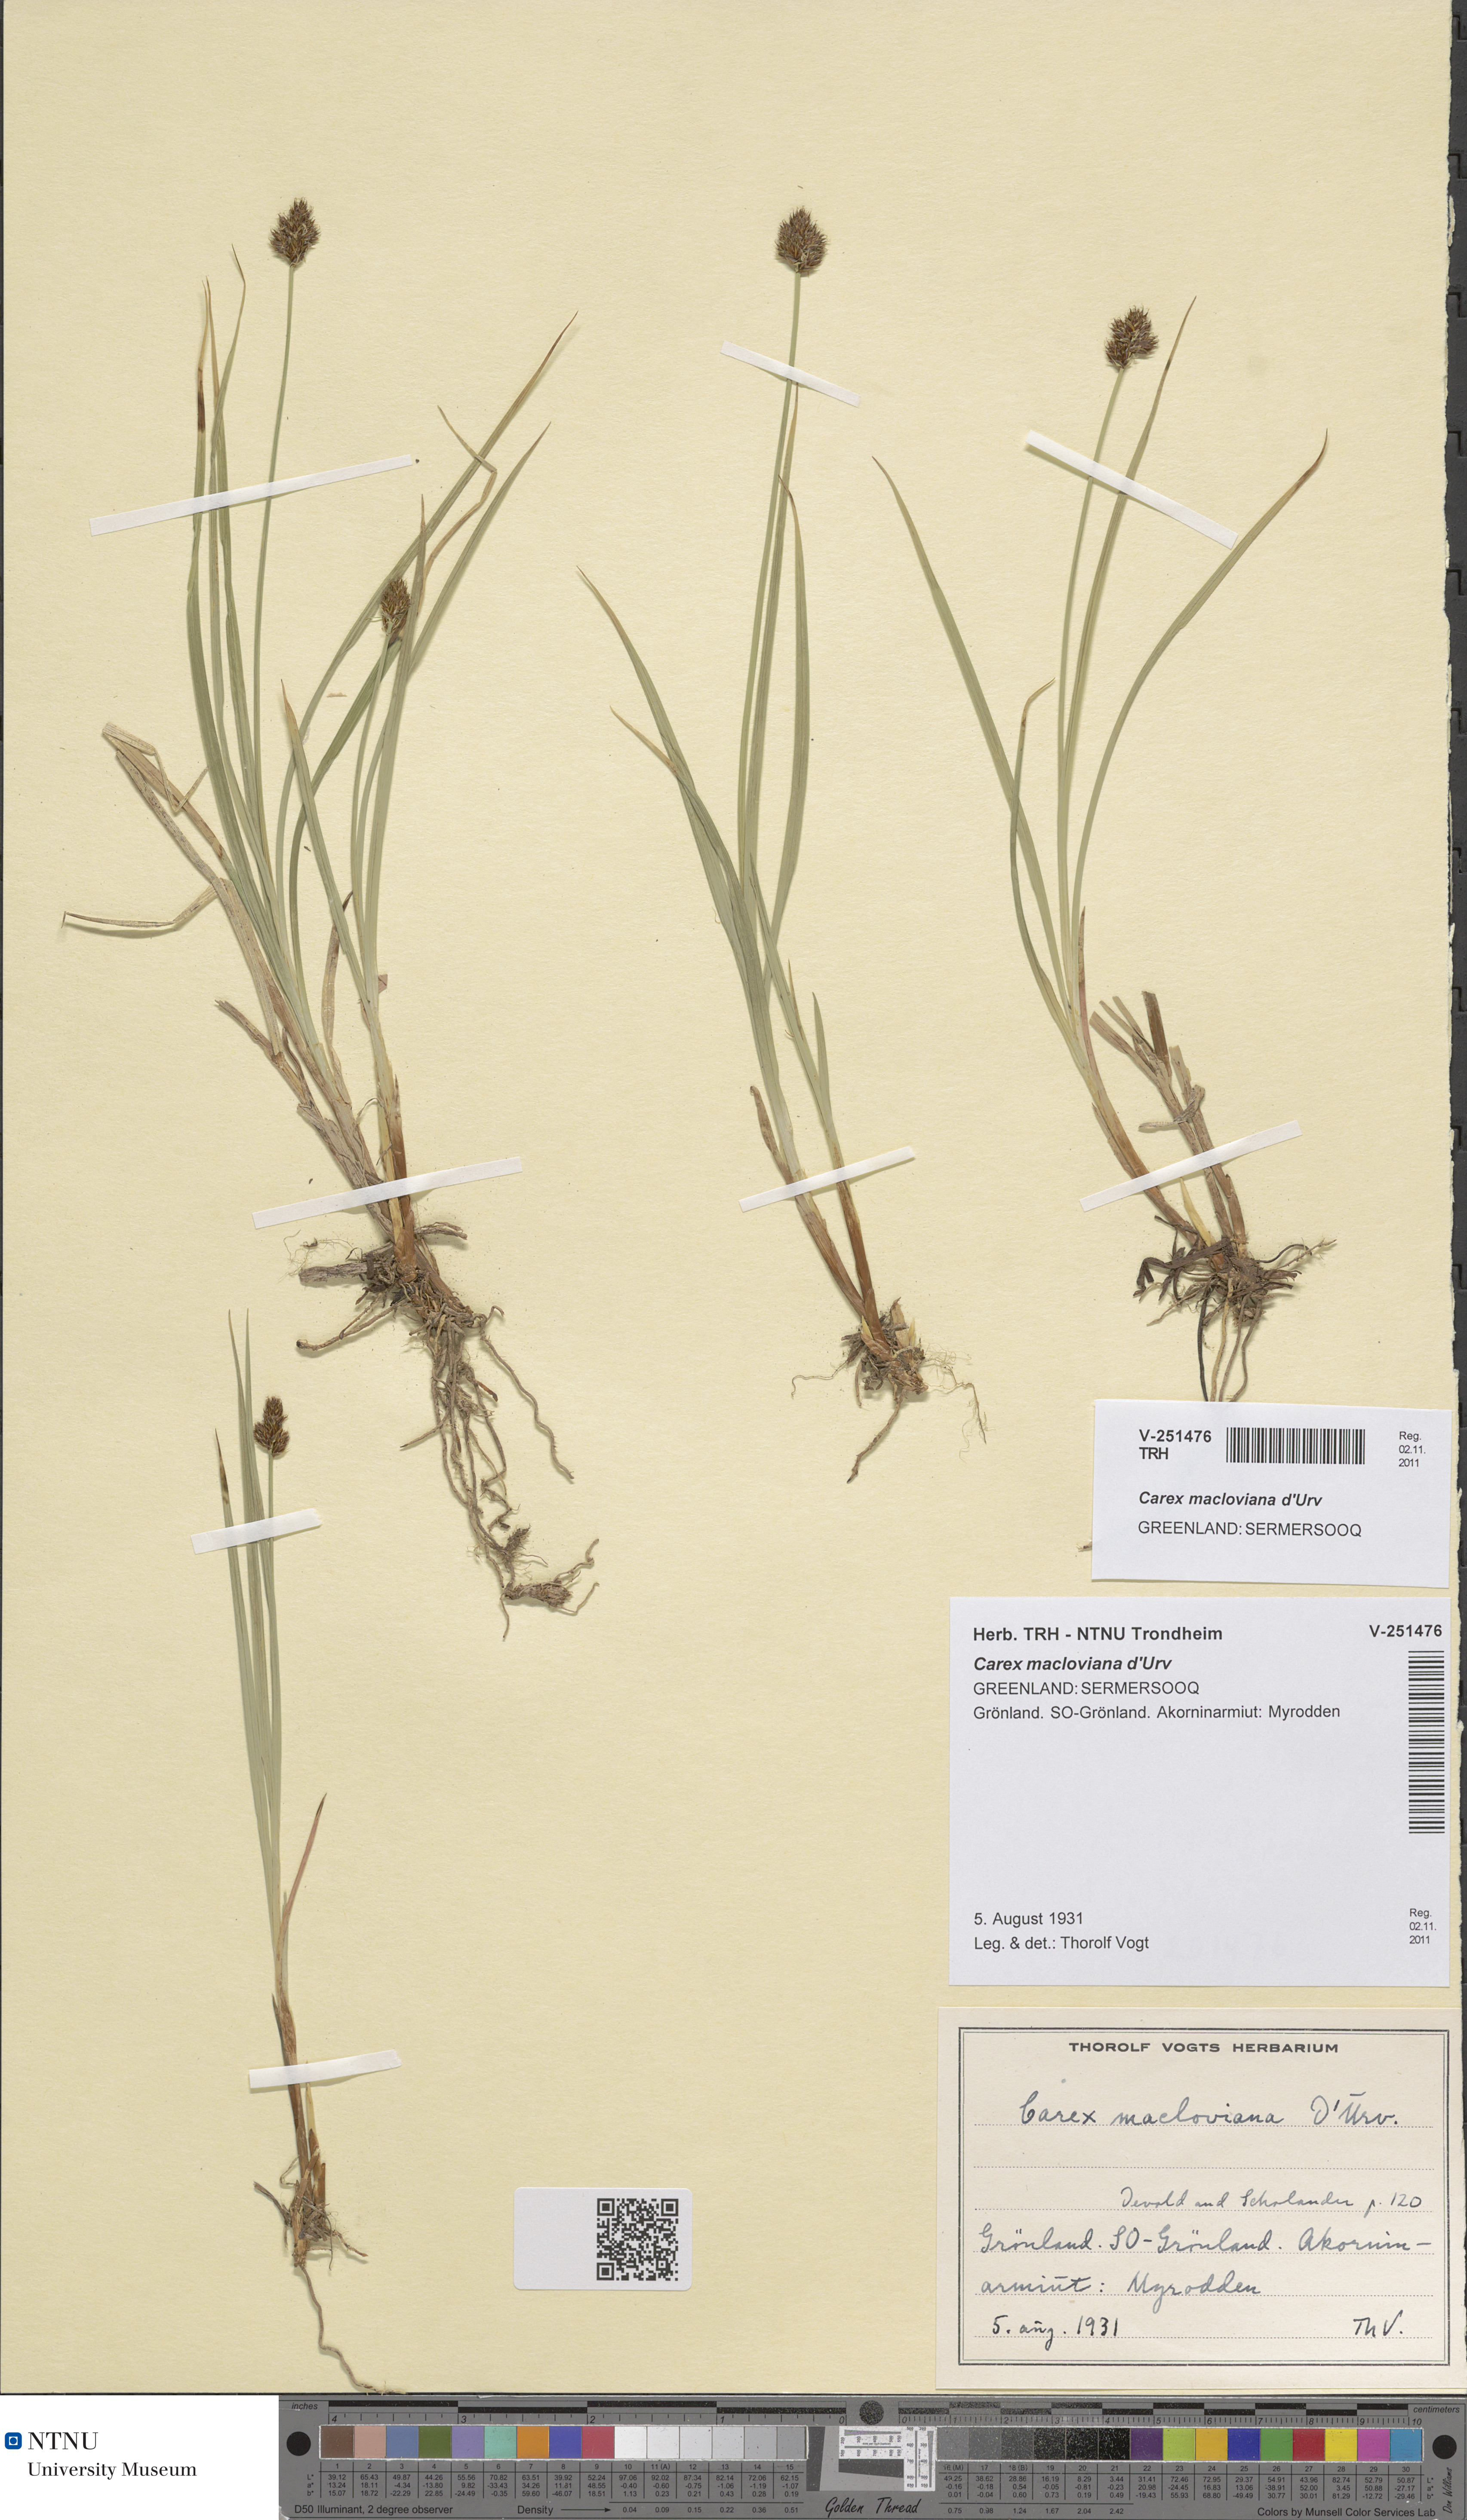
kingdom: Plantae
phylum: Tracheophyta
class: Liliopsida
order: Poales
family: Cyperaceae
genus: Carex
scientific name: Carex macloviana
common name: Falkland island sedge
